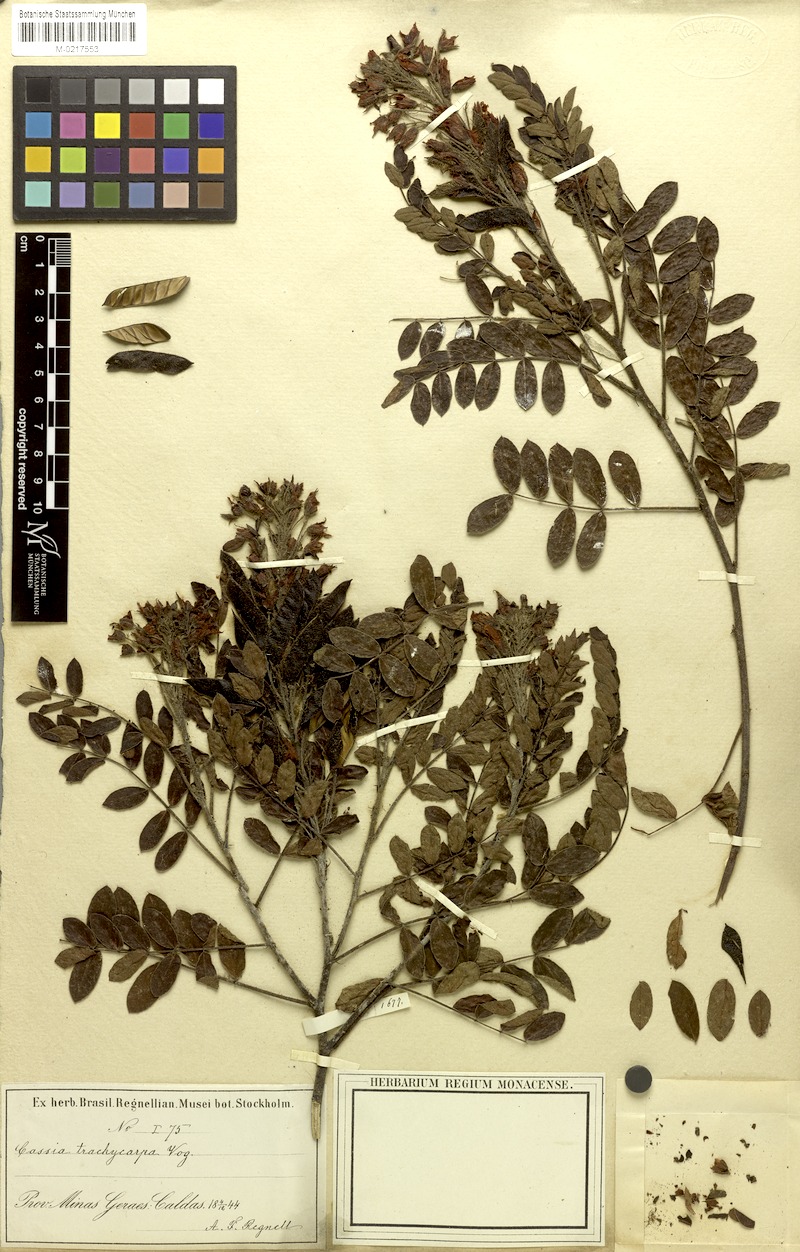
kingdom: Plantae
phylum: Tracheophyta
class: Magnoliopsida
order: Fabales
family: Fabaceae
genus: Chamaecrista
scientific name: Chamaecrista trachycarpa
